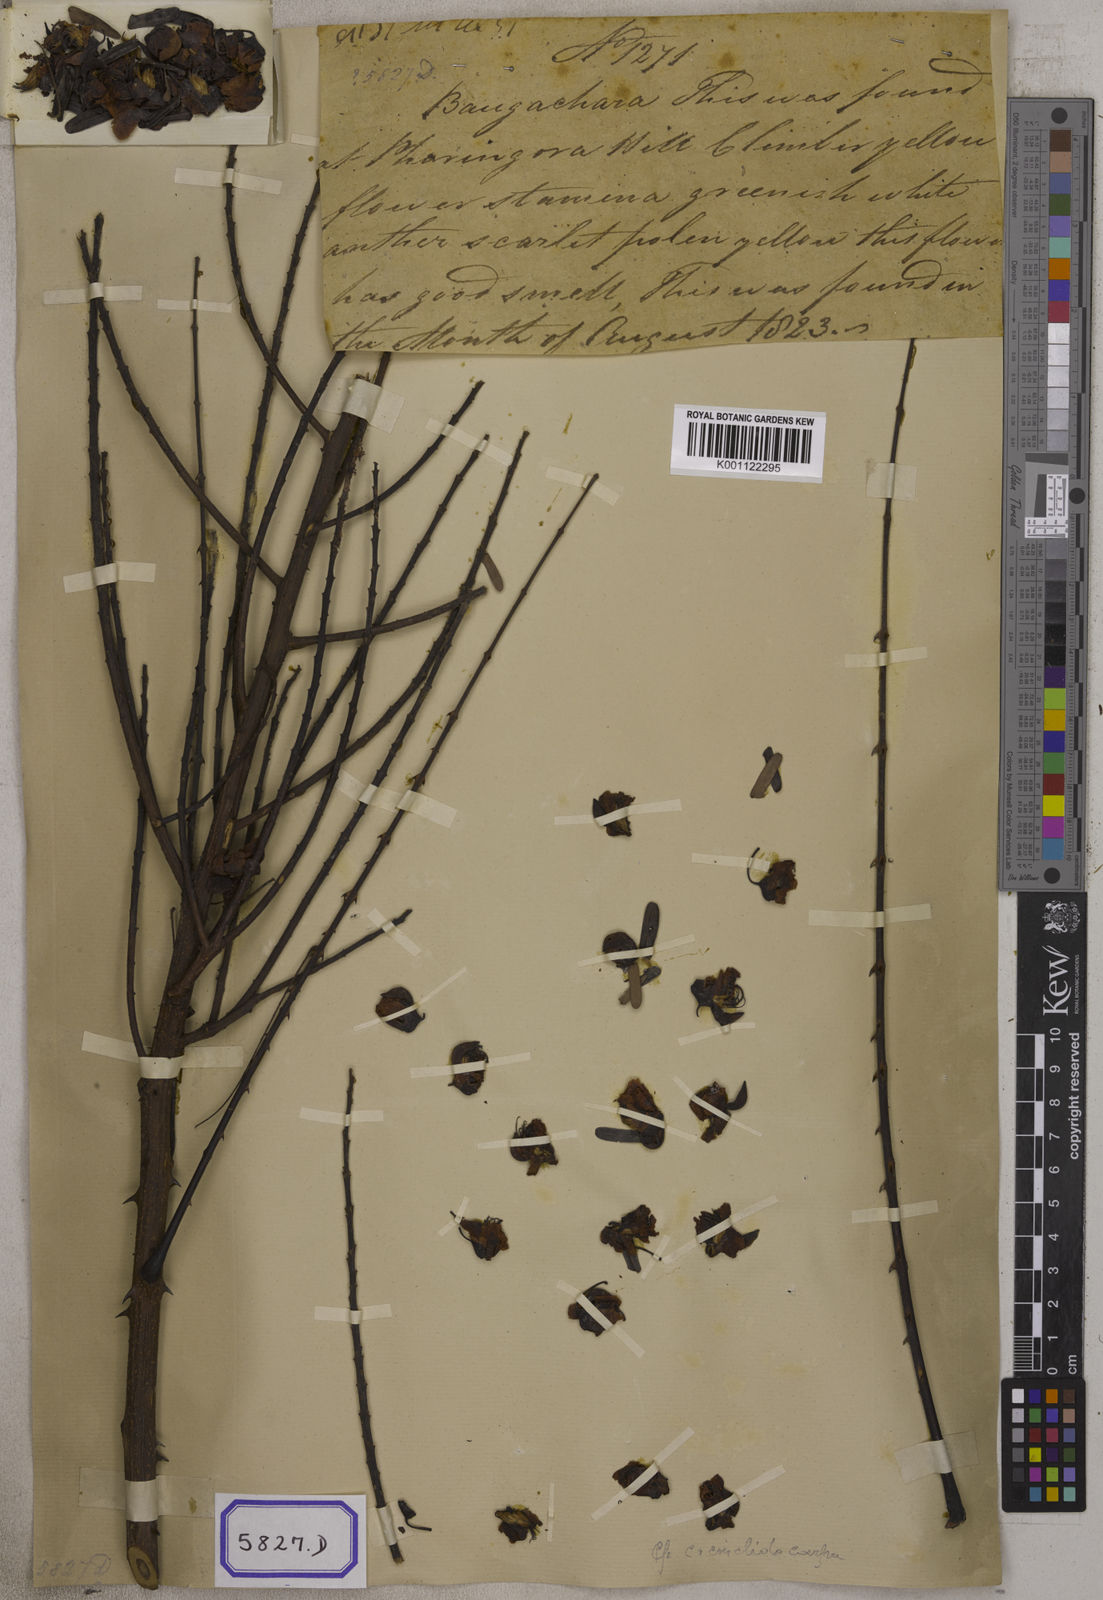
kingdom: Plantae
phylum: Tracheophyta
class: Magnoliopsida
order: Fabales
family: Fabaceae
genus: Caesalpinia
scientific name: Caesalpinia
